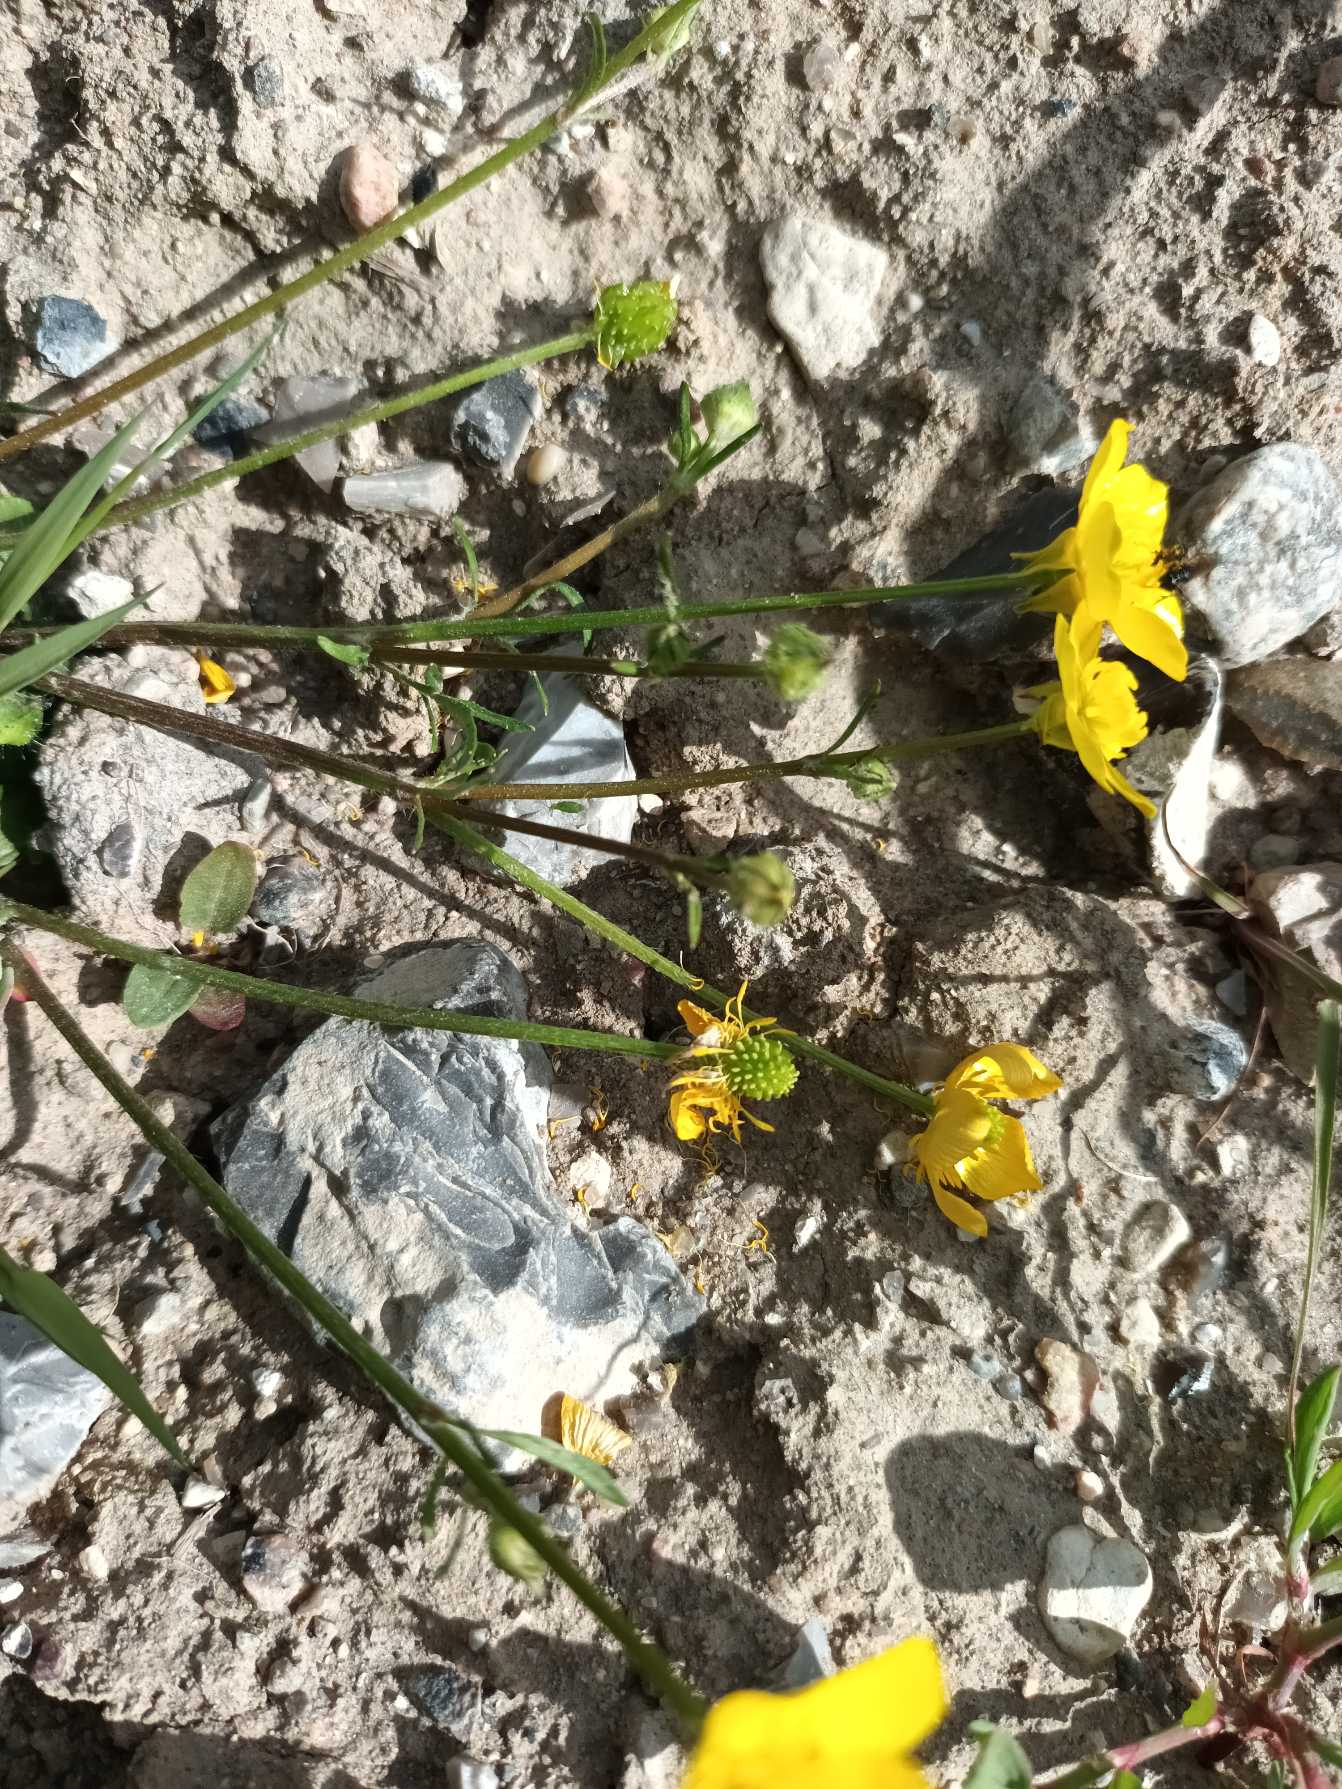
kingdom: Plantae
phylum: Tracheophyta
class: Magnoliopsida
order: Ranunculales
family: Ranunculaceae
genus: Ranunculus
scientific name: Ranunculus sardous
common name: Stivhåret ranunkel
